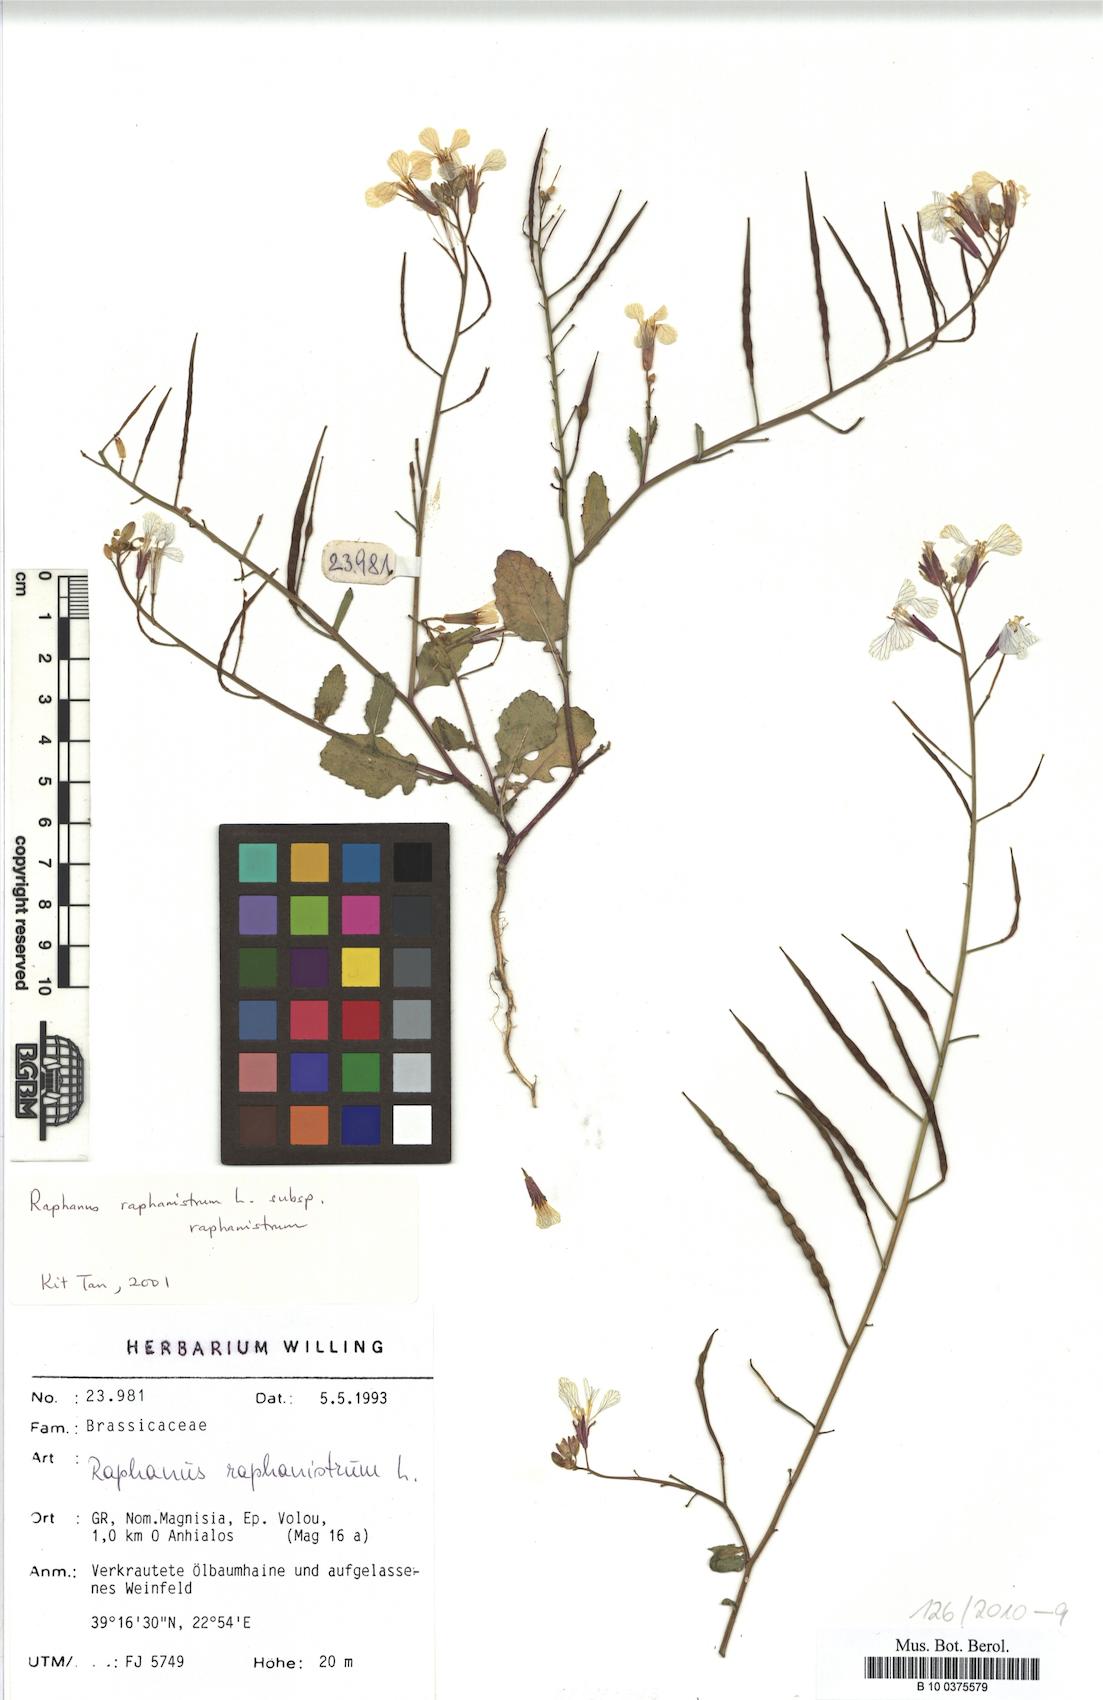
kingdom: Plantae
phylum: Tracheophyta
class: Magnoliopsida
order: Brassicales
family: Brassicaceae
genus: Raphanus
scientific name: Raphanus raphanistrum
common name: Wild radish
